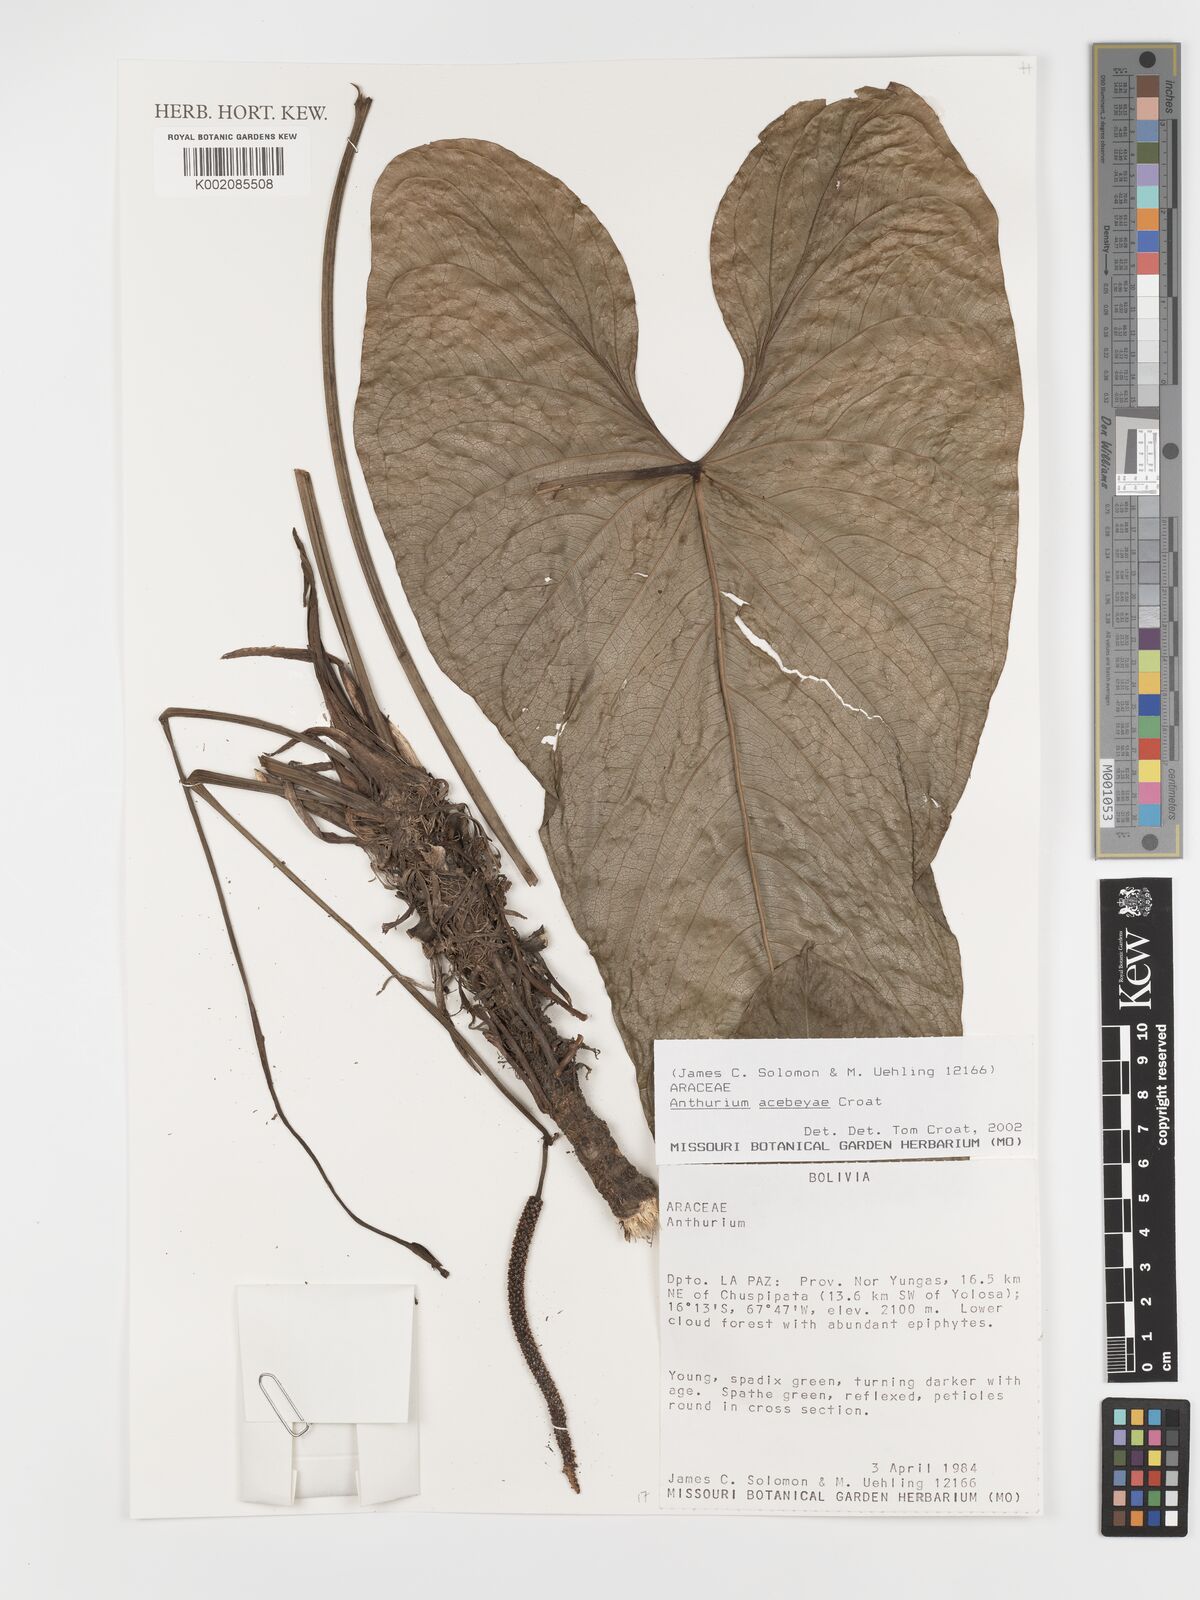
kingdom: Plantae
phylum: Tracheophyta
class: Liliopsida
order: Alismatales
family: Araceae
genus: Anthurium
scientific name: Anthurium acebeyae
